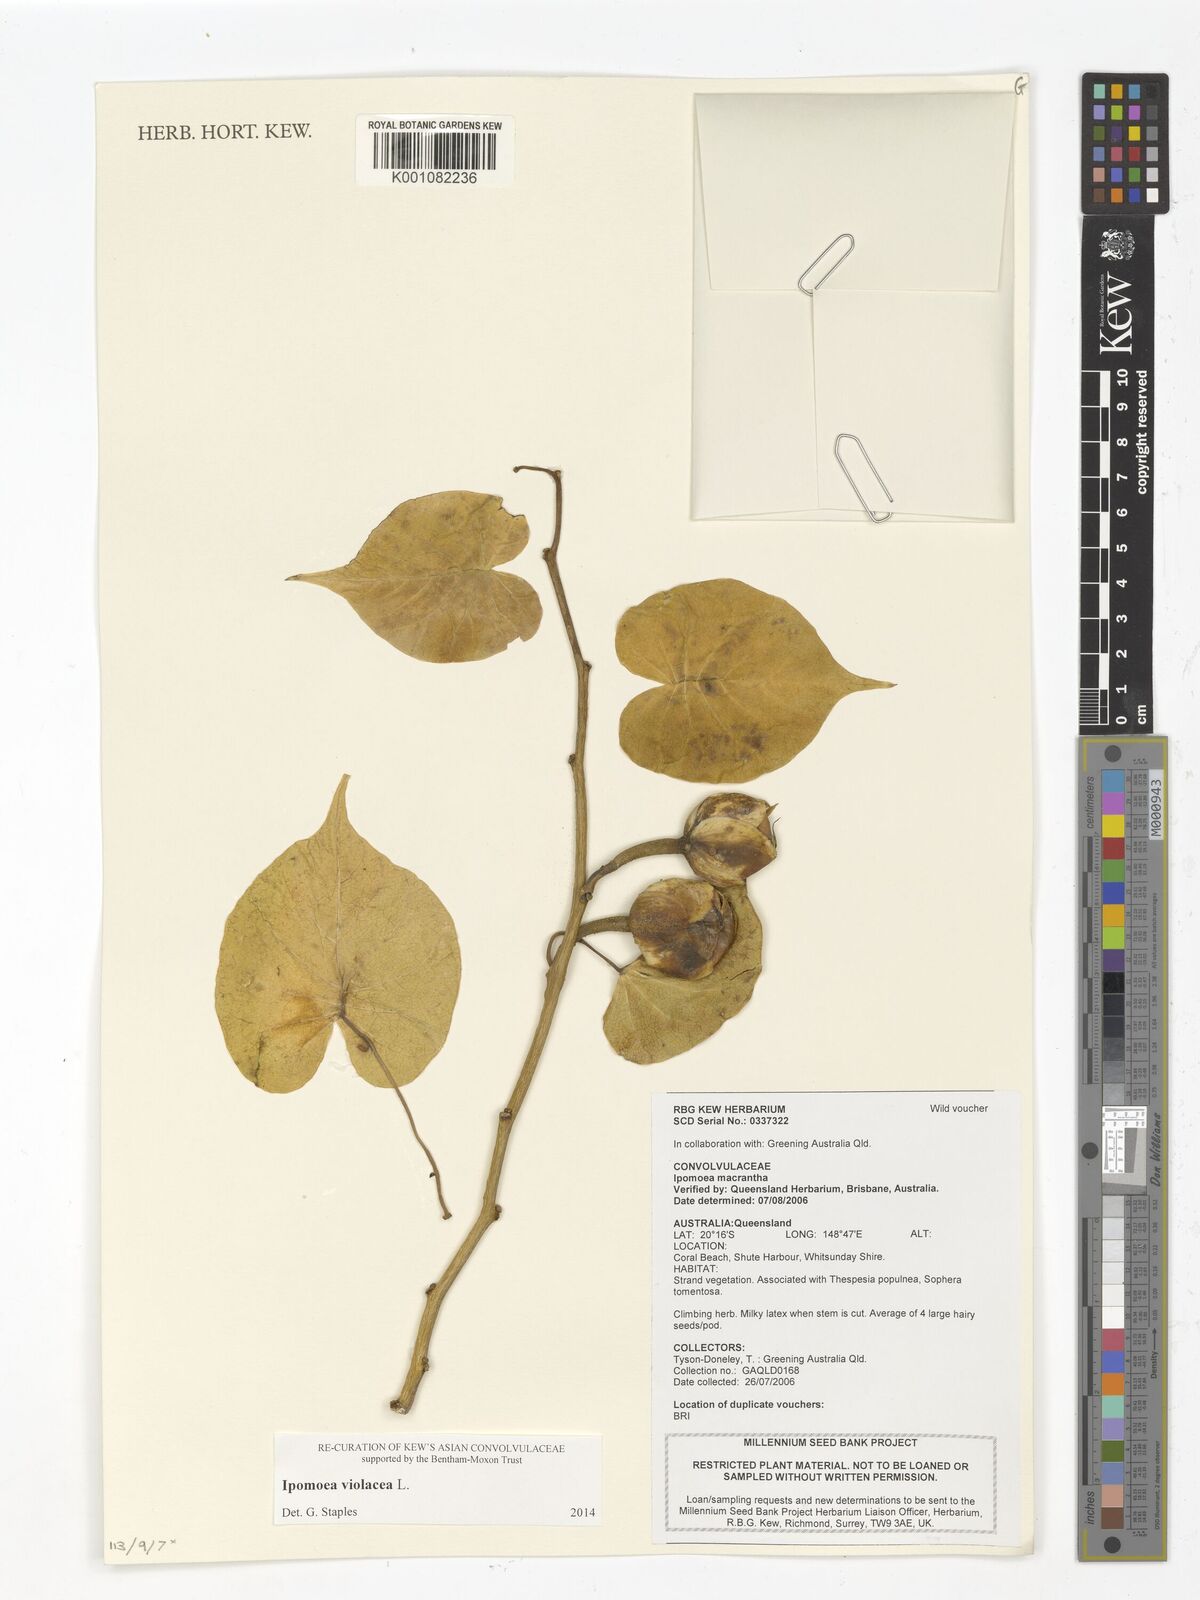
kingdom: Plantae
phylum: Tracheophyta
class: Magnoliopsida
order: Solanales
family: Convolvulaceae
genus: Ipomoea
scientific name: Ipomoea violacea
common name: Beach moonflower
